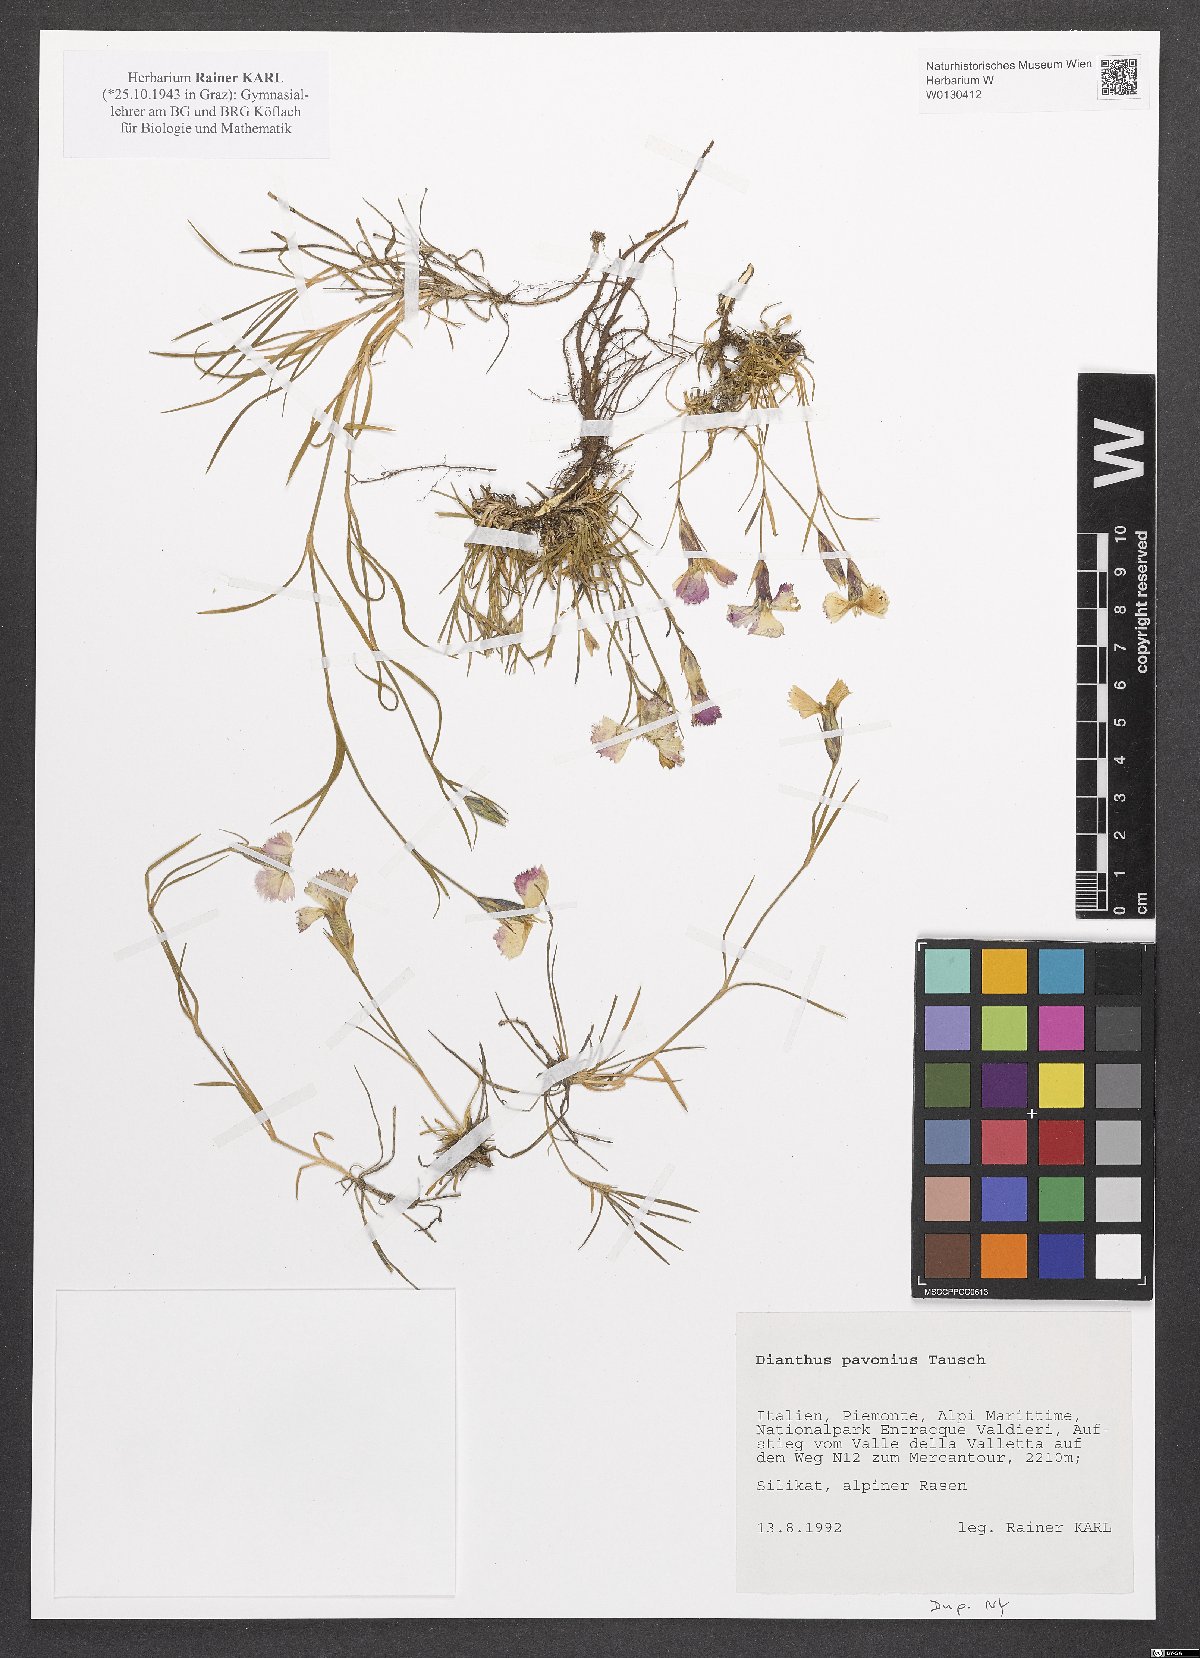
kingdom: Plantae
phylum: Tracheophyta
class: Magnoliopsida
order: Caryophyllales
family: Caryophyllaceae
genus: Dianthus
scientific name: Dianthus pavonius
